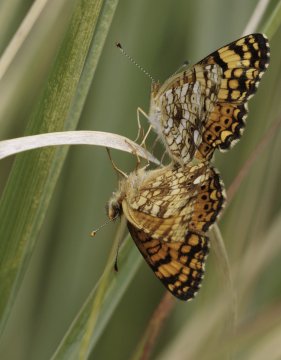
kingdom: Animalia
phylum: Arthropoda
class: Insecta
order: Lepidoptera
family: Nymphalidae
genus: Eresia
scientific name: Eresia aveyrona
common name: Mylitta Crescent
